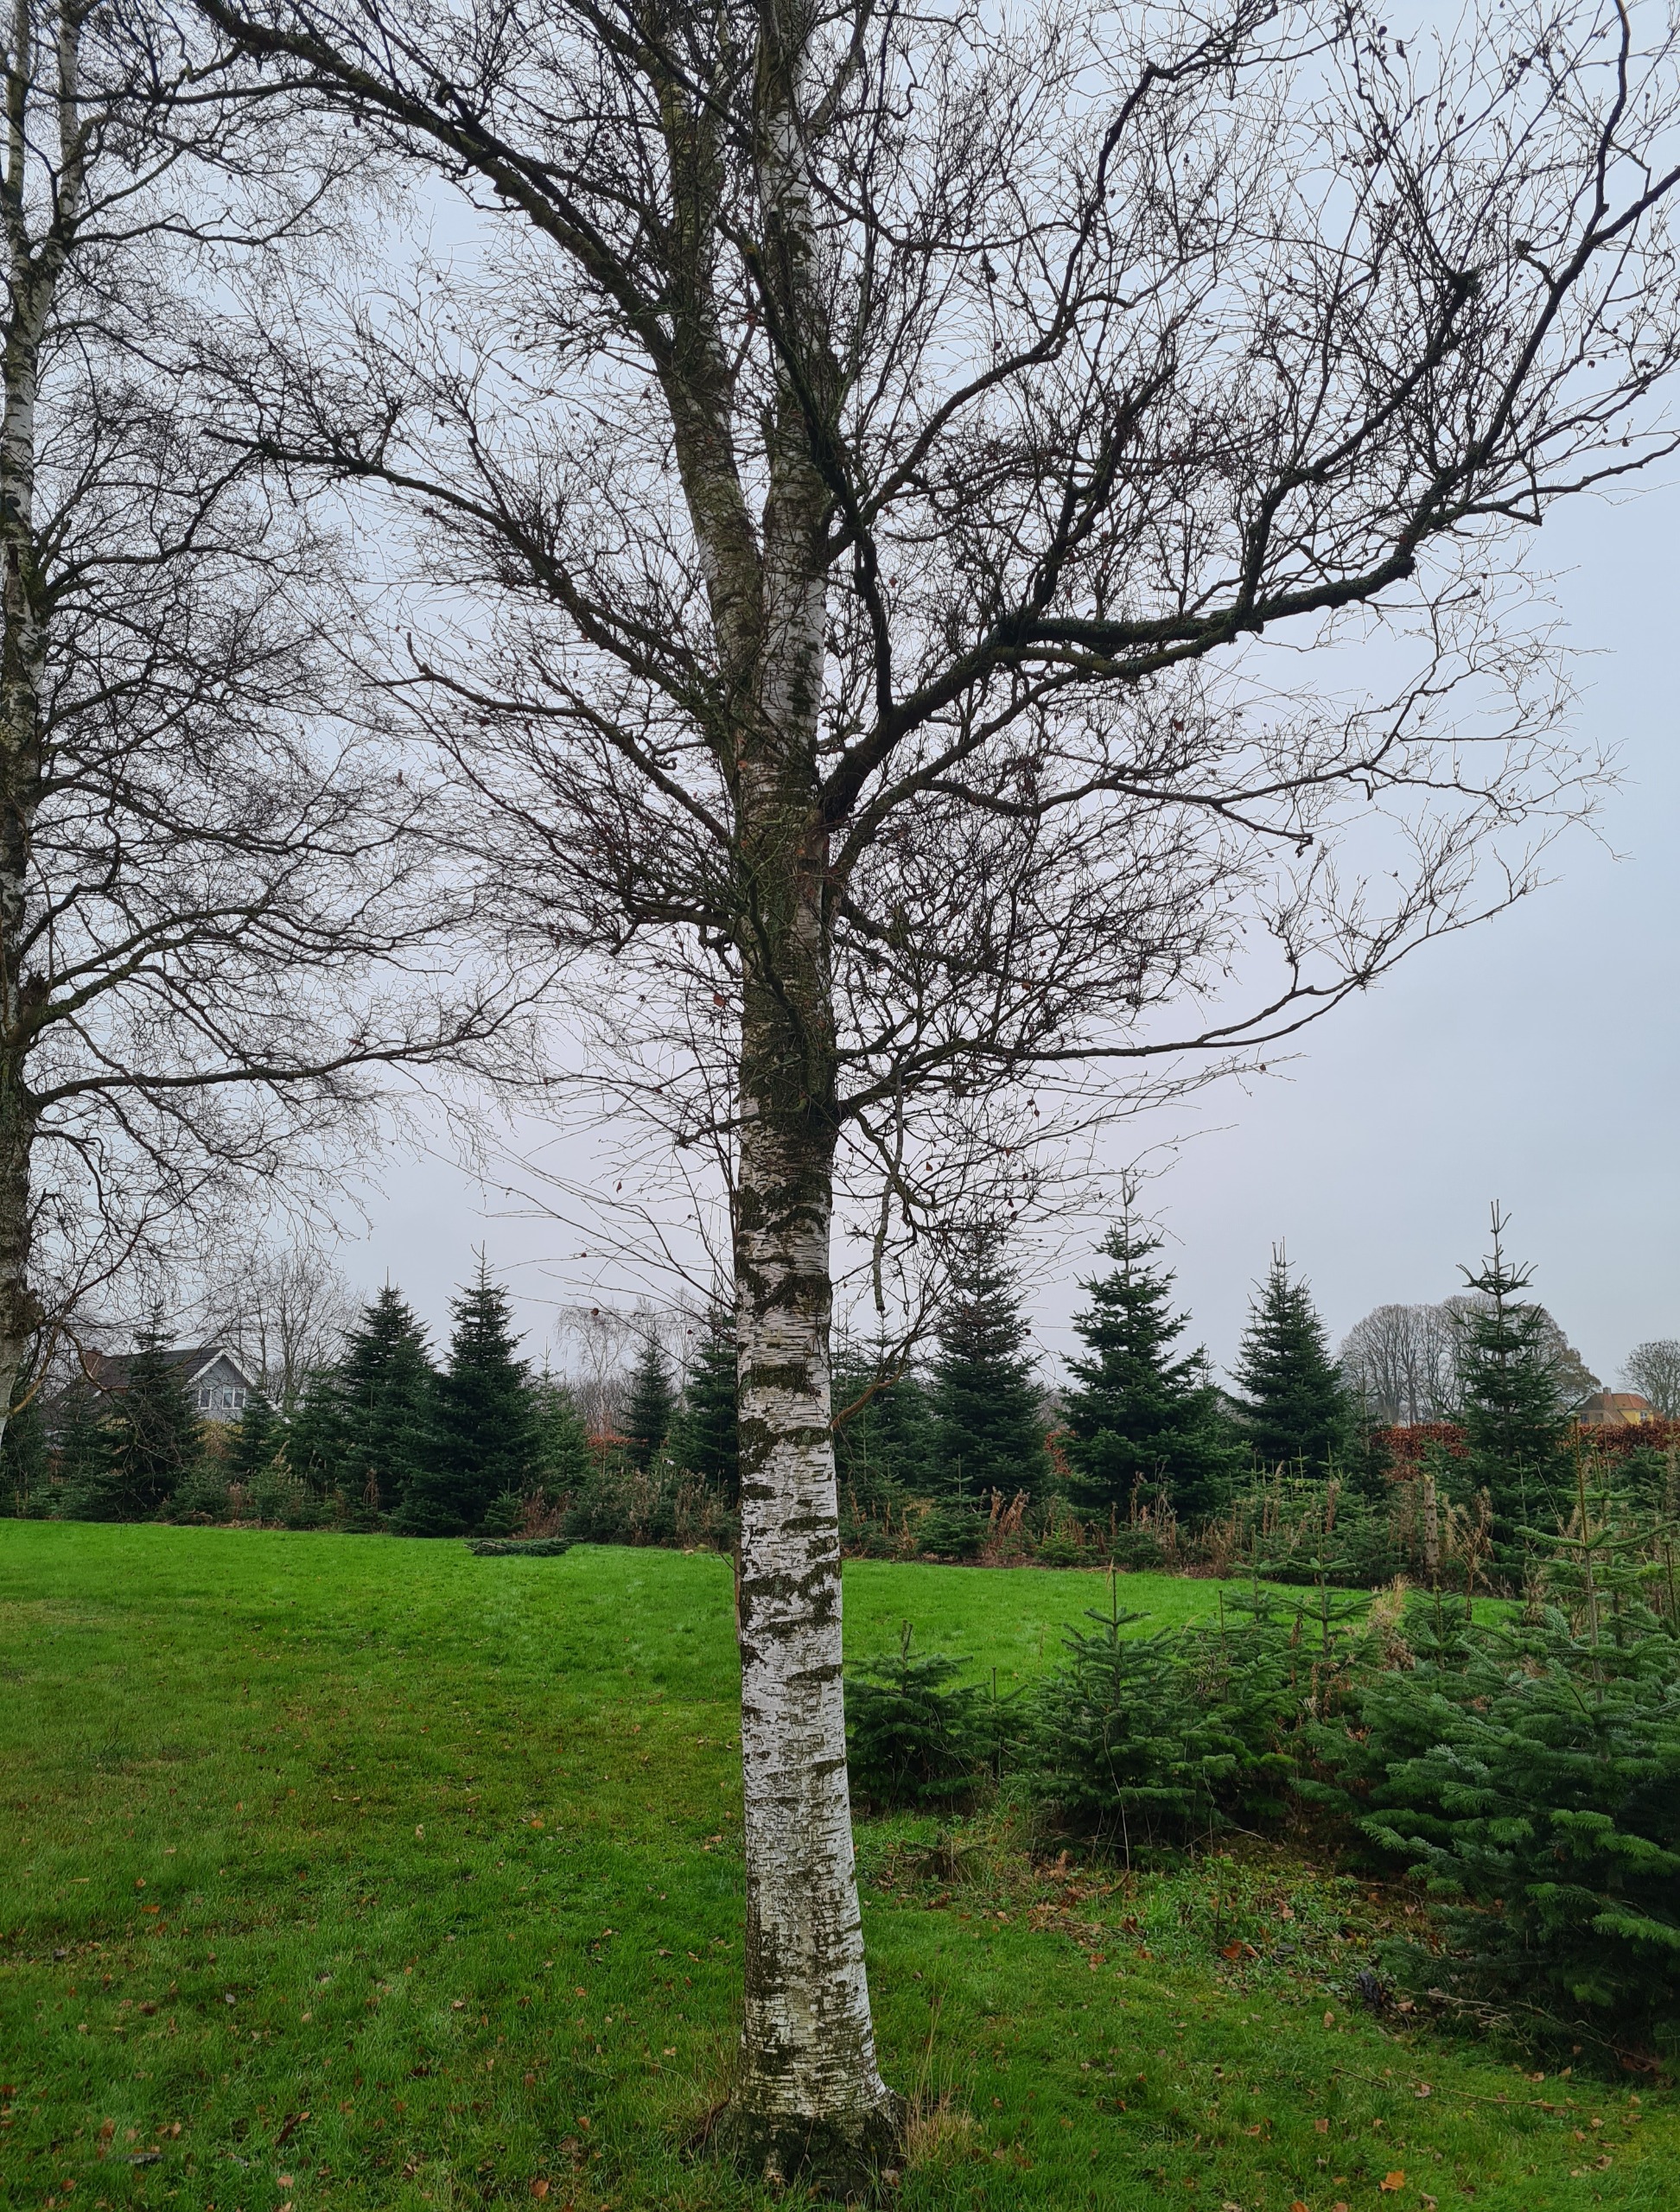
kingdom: Fungi
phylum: Ascomycota
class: Taphrinomycetes
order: Taphrinales
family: Taphrinaceae
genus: Taphrina
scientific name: Taphrina betulina
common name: Hekse-sækdug
